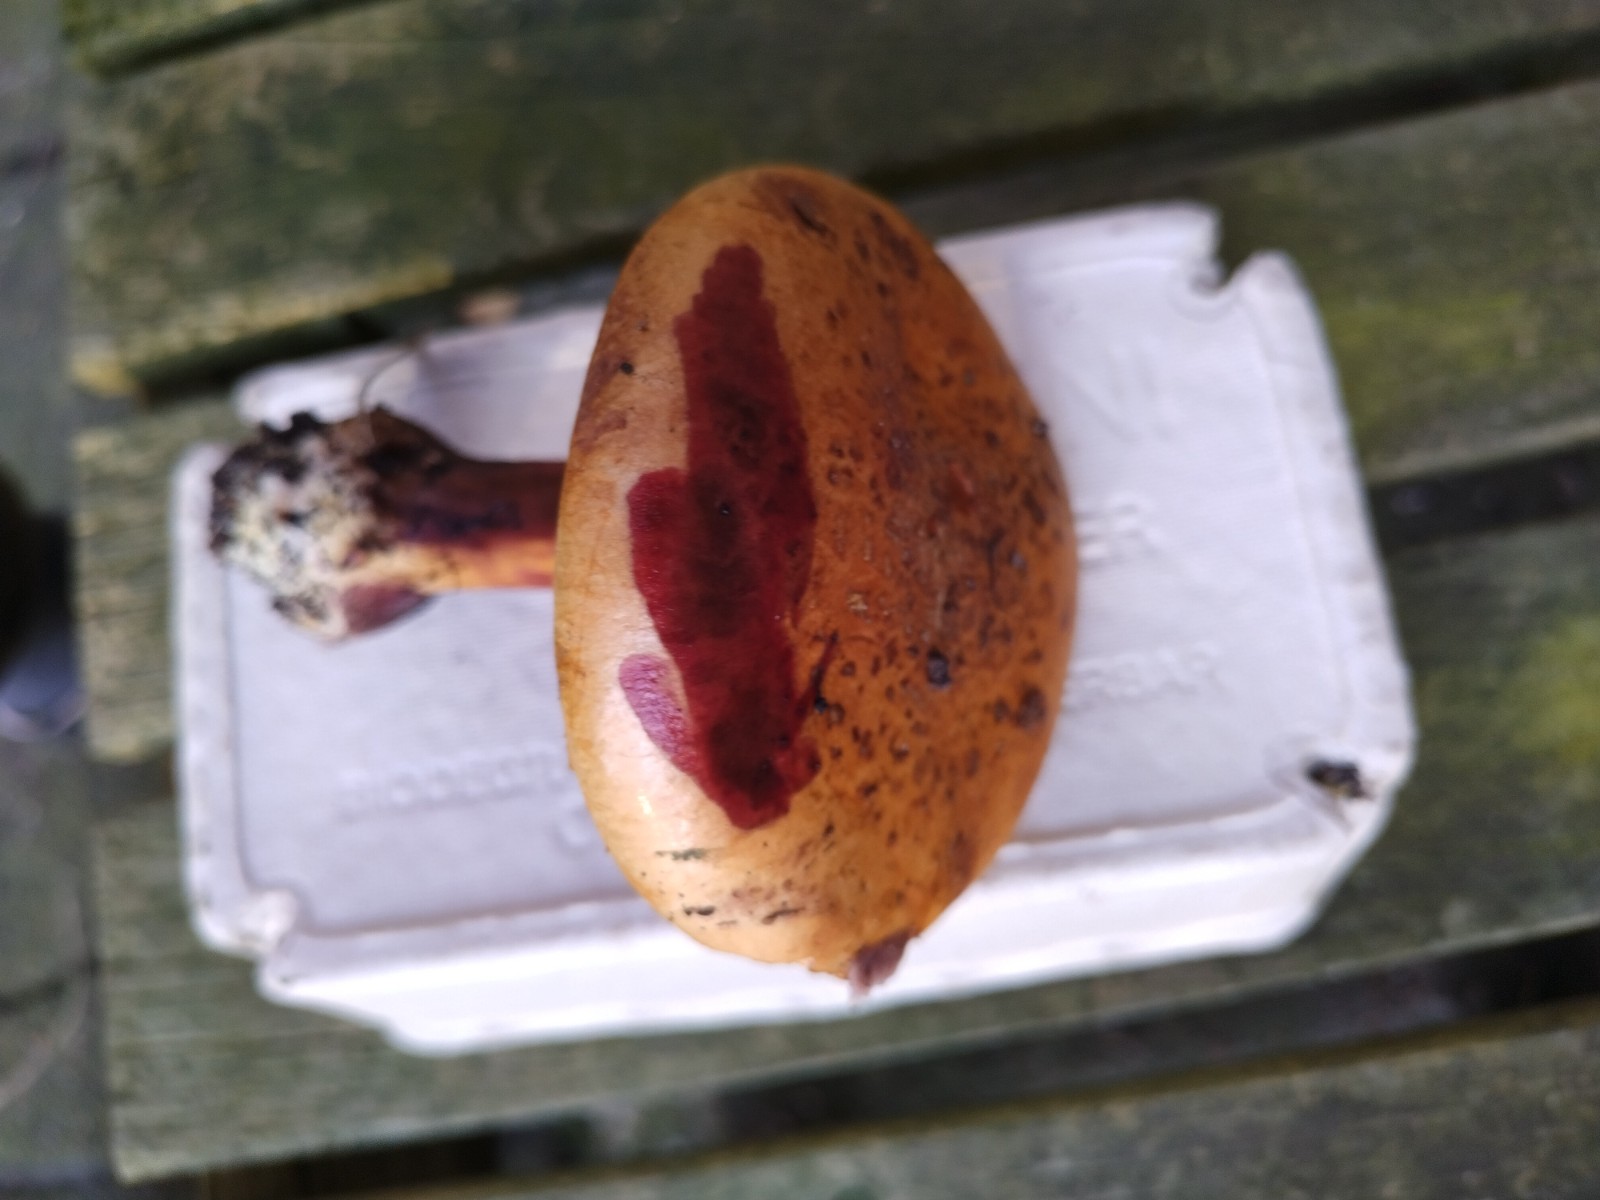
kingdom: Fungi
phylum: Basidiomycota
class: Agaricomycetes
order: Agaricales
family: Cortinariaceae
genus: Calonarius
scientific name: Calonarius alcalinophilus
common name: gyldenbrun slørhat
